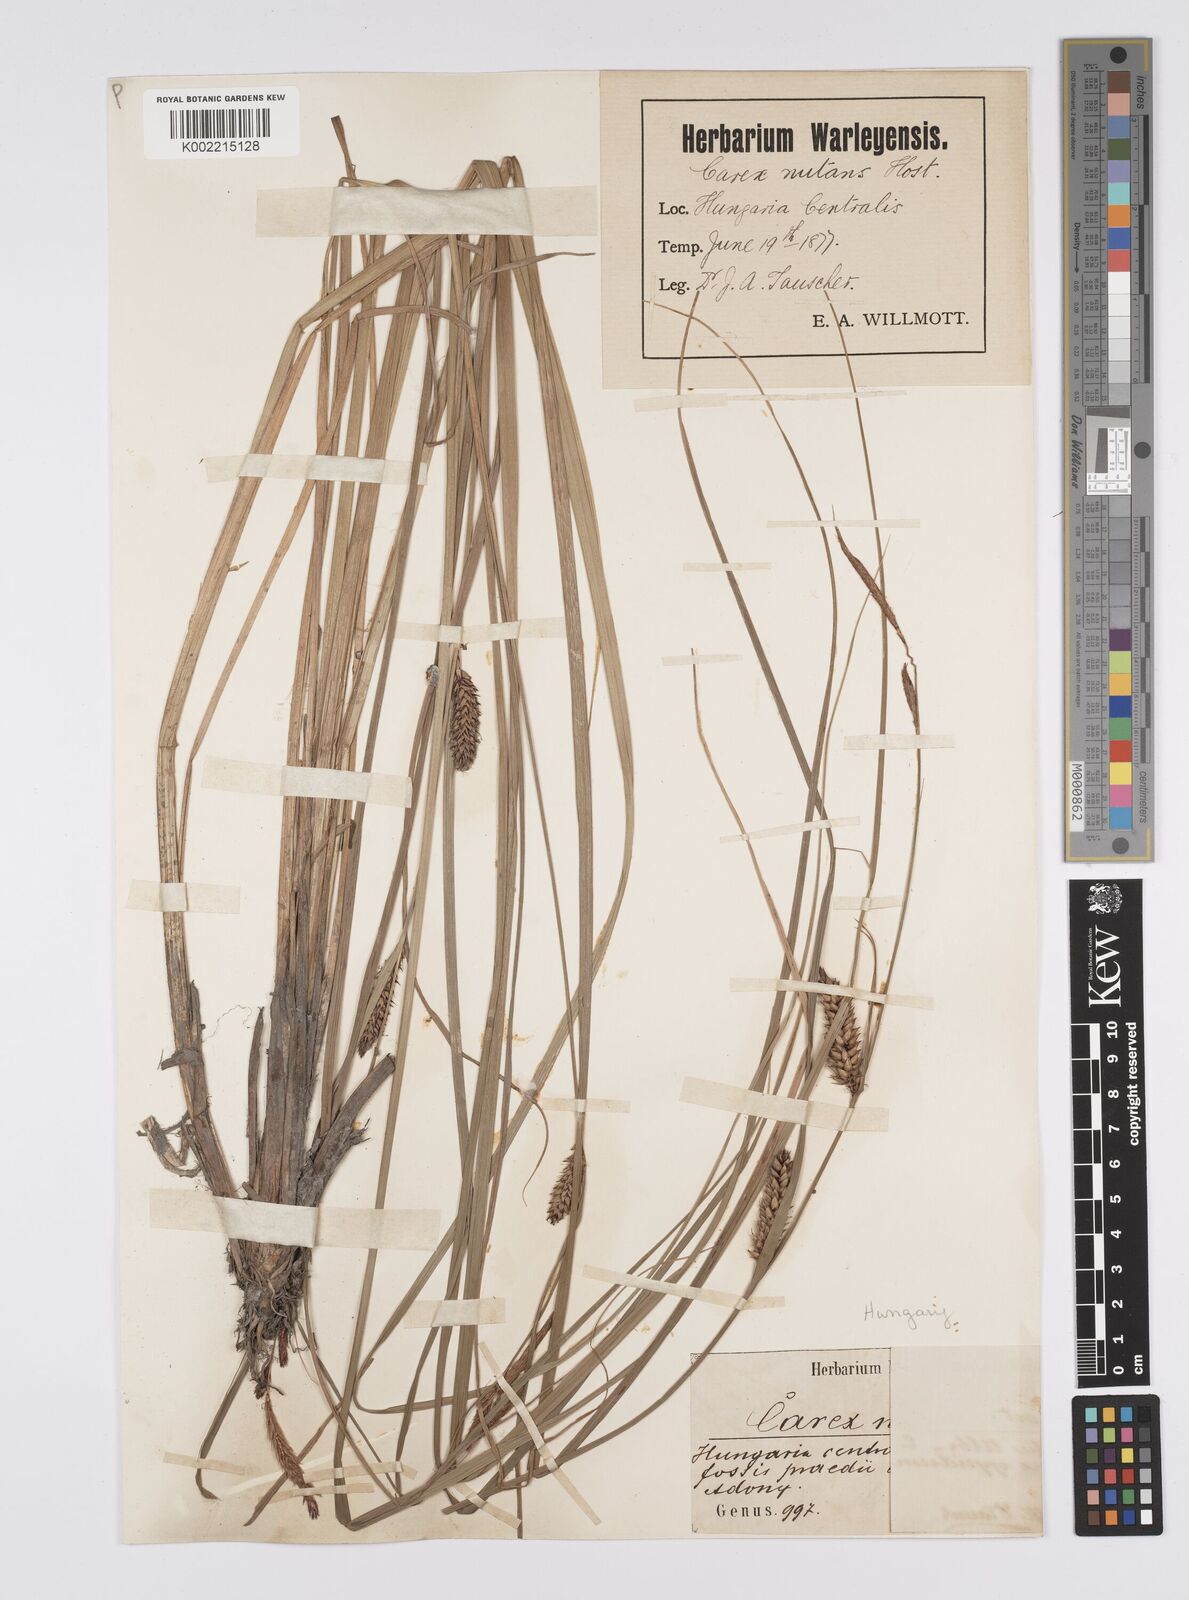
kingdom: Plantae
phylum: Tracheophyta
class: Liliopsida
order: Poales
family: Cyperaceae
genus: Carex
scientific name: Carex melanostachya
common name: Black-spiked sedge
